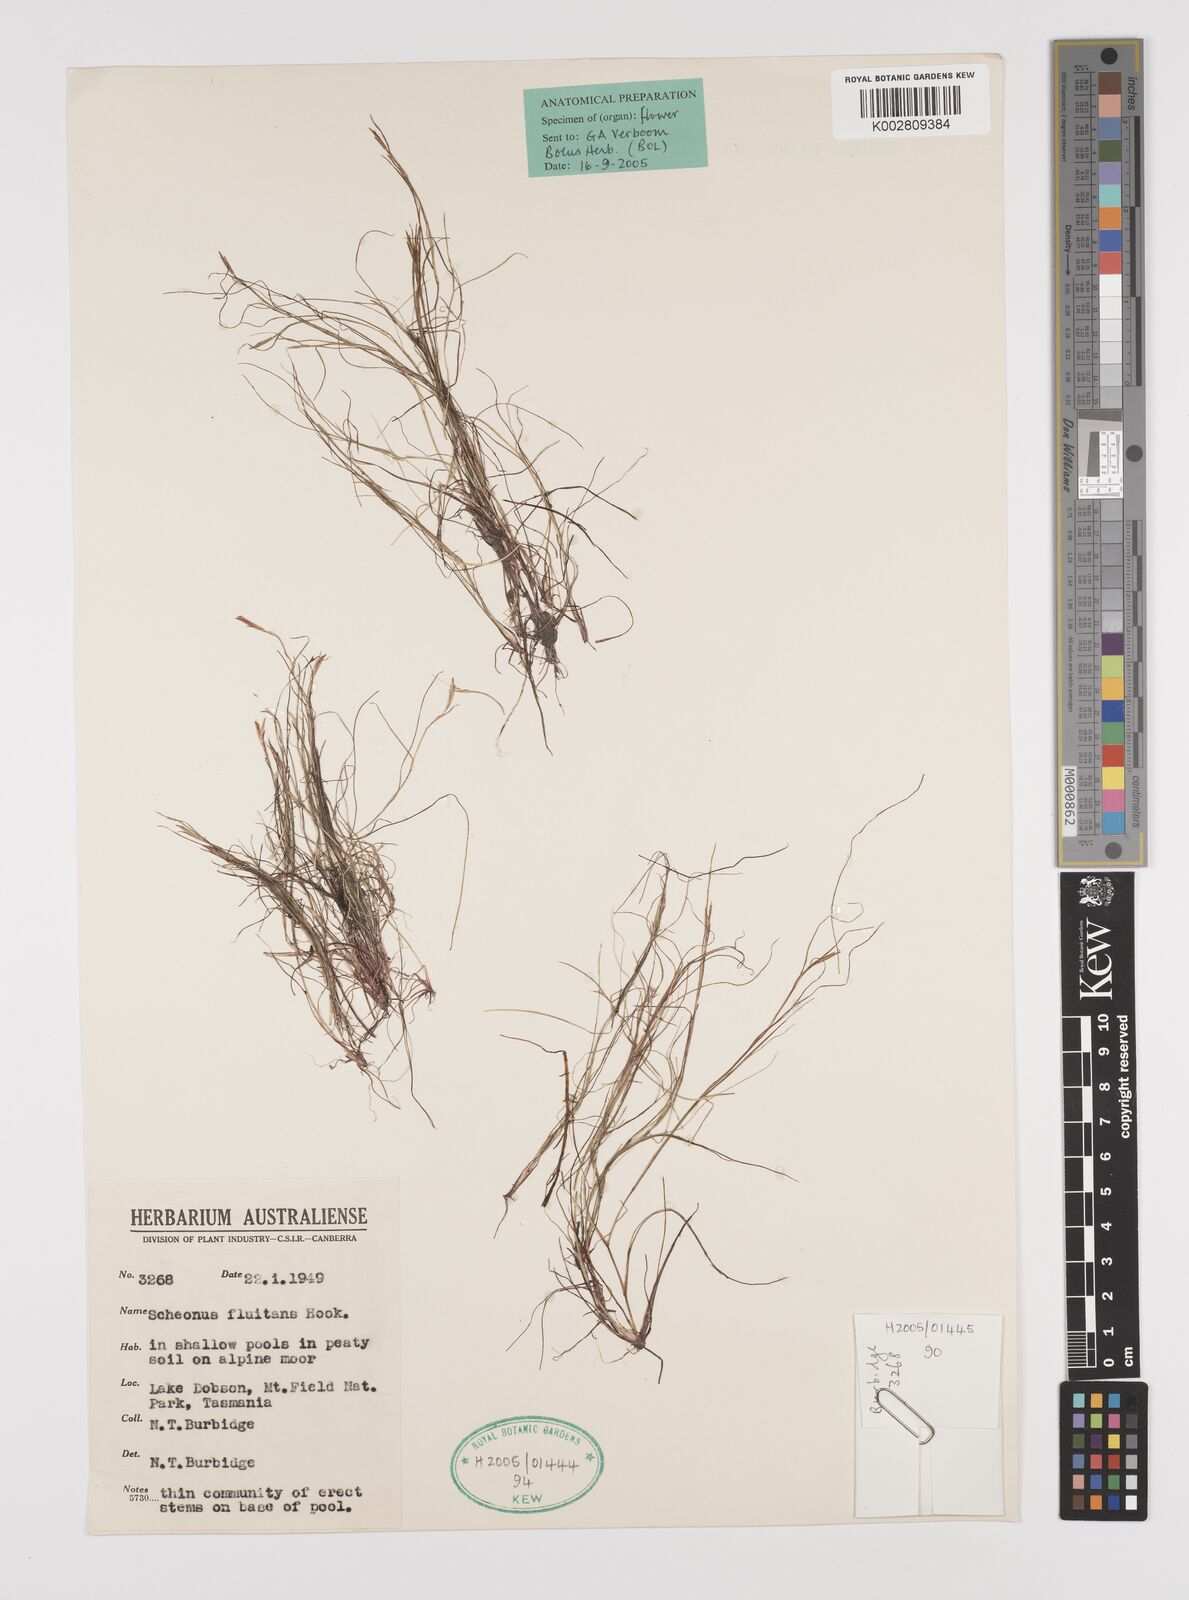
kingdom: Plantae
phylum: Tracheophyta
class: Liliopsida
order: Poales
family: Cyperaceae
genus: Schoenus
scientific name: Schoenus fluitans
